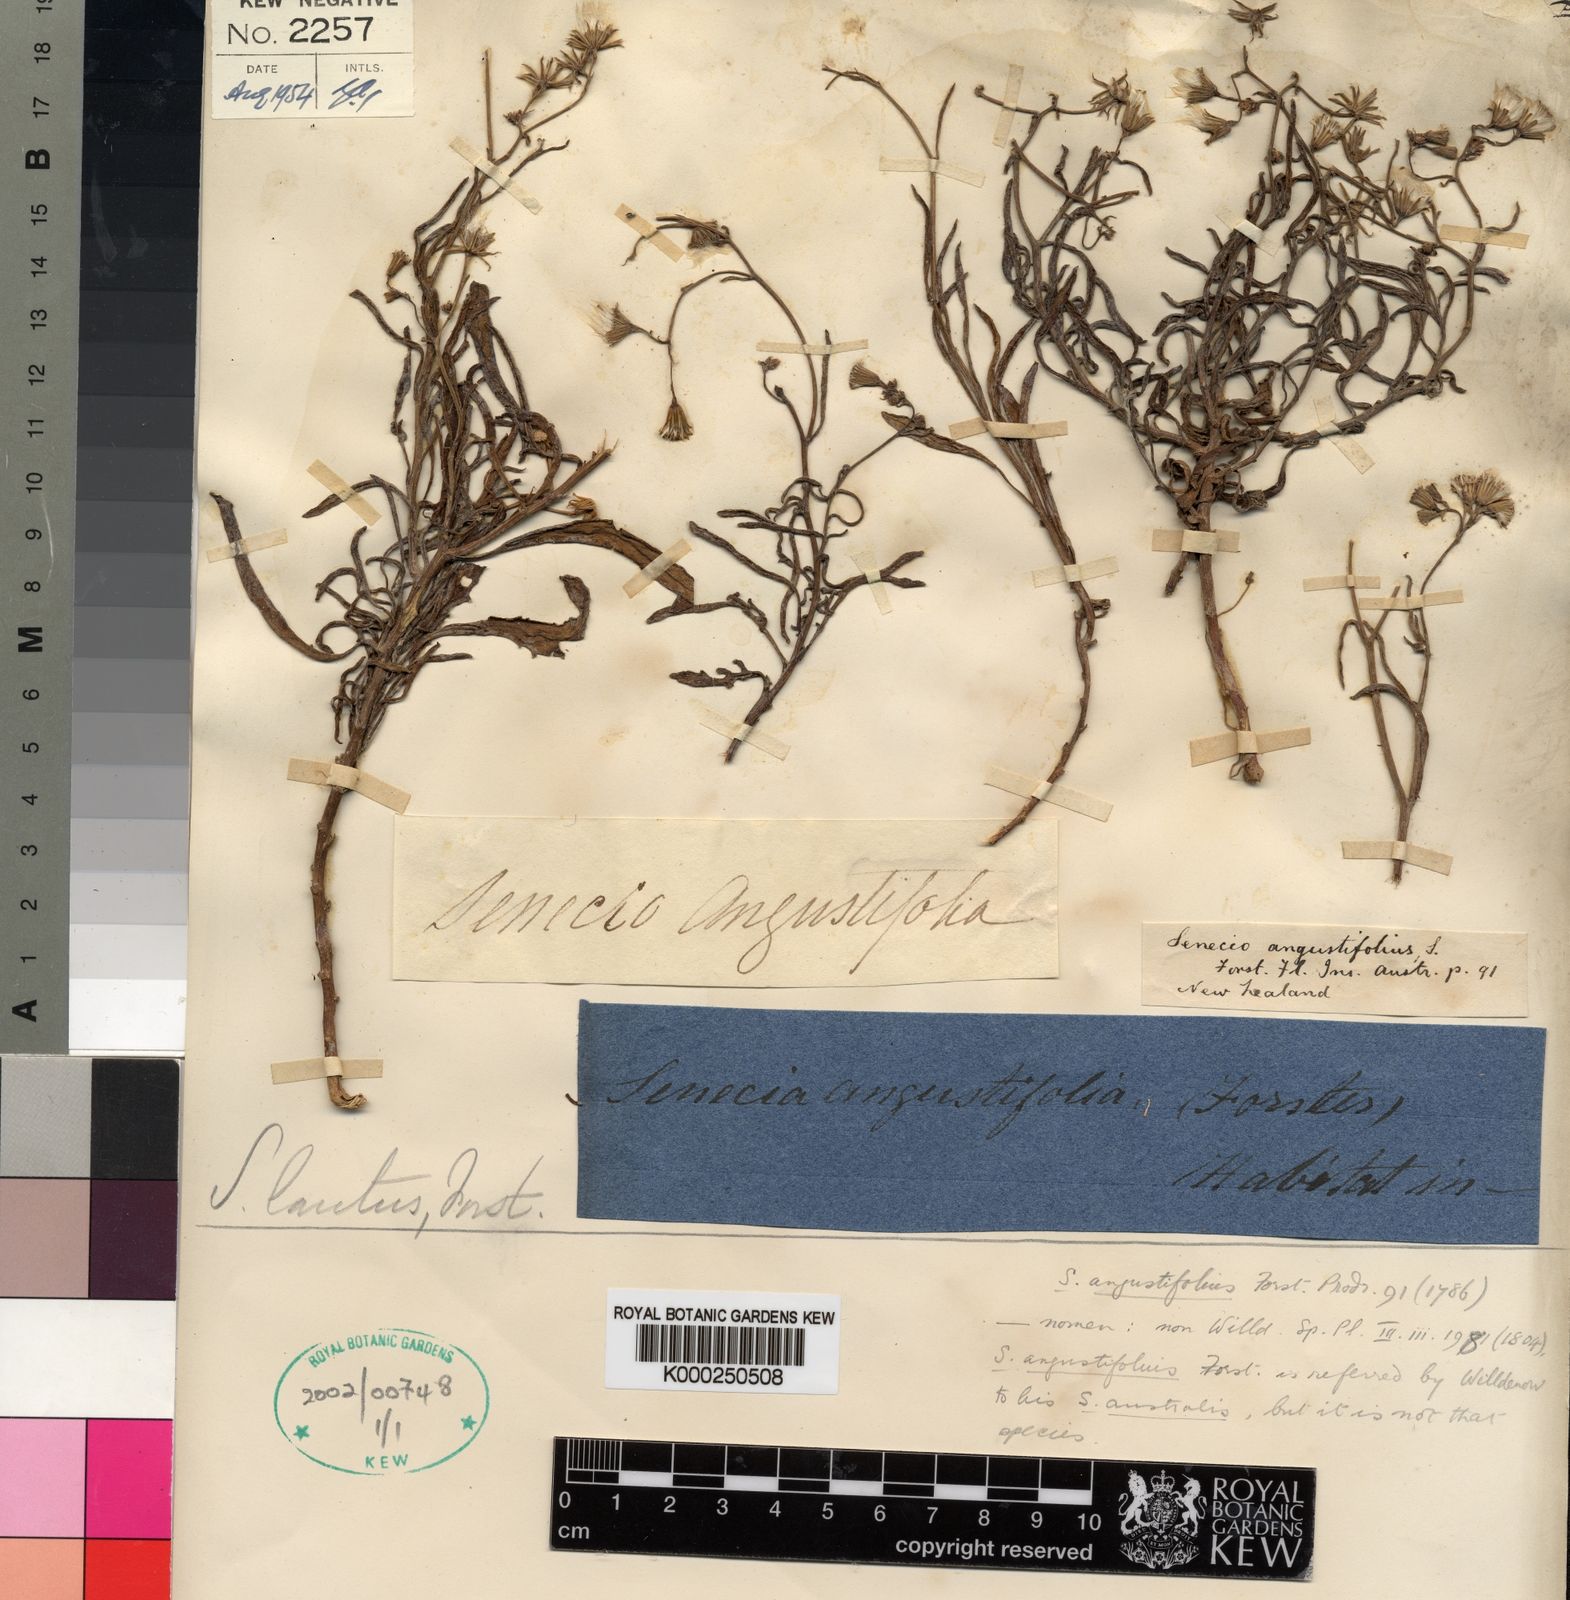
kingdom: Plantae
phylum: Tracheophyta
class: Magnoliopsida
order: Asterales
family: Asteraceae
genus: Senecio
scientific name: Senecio australis
